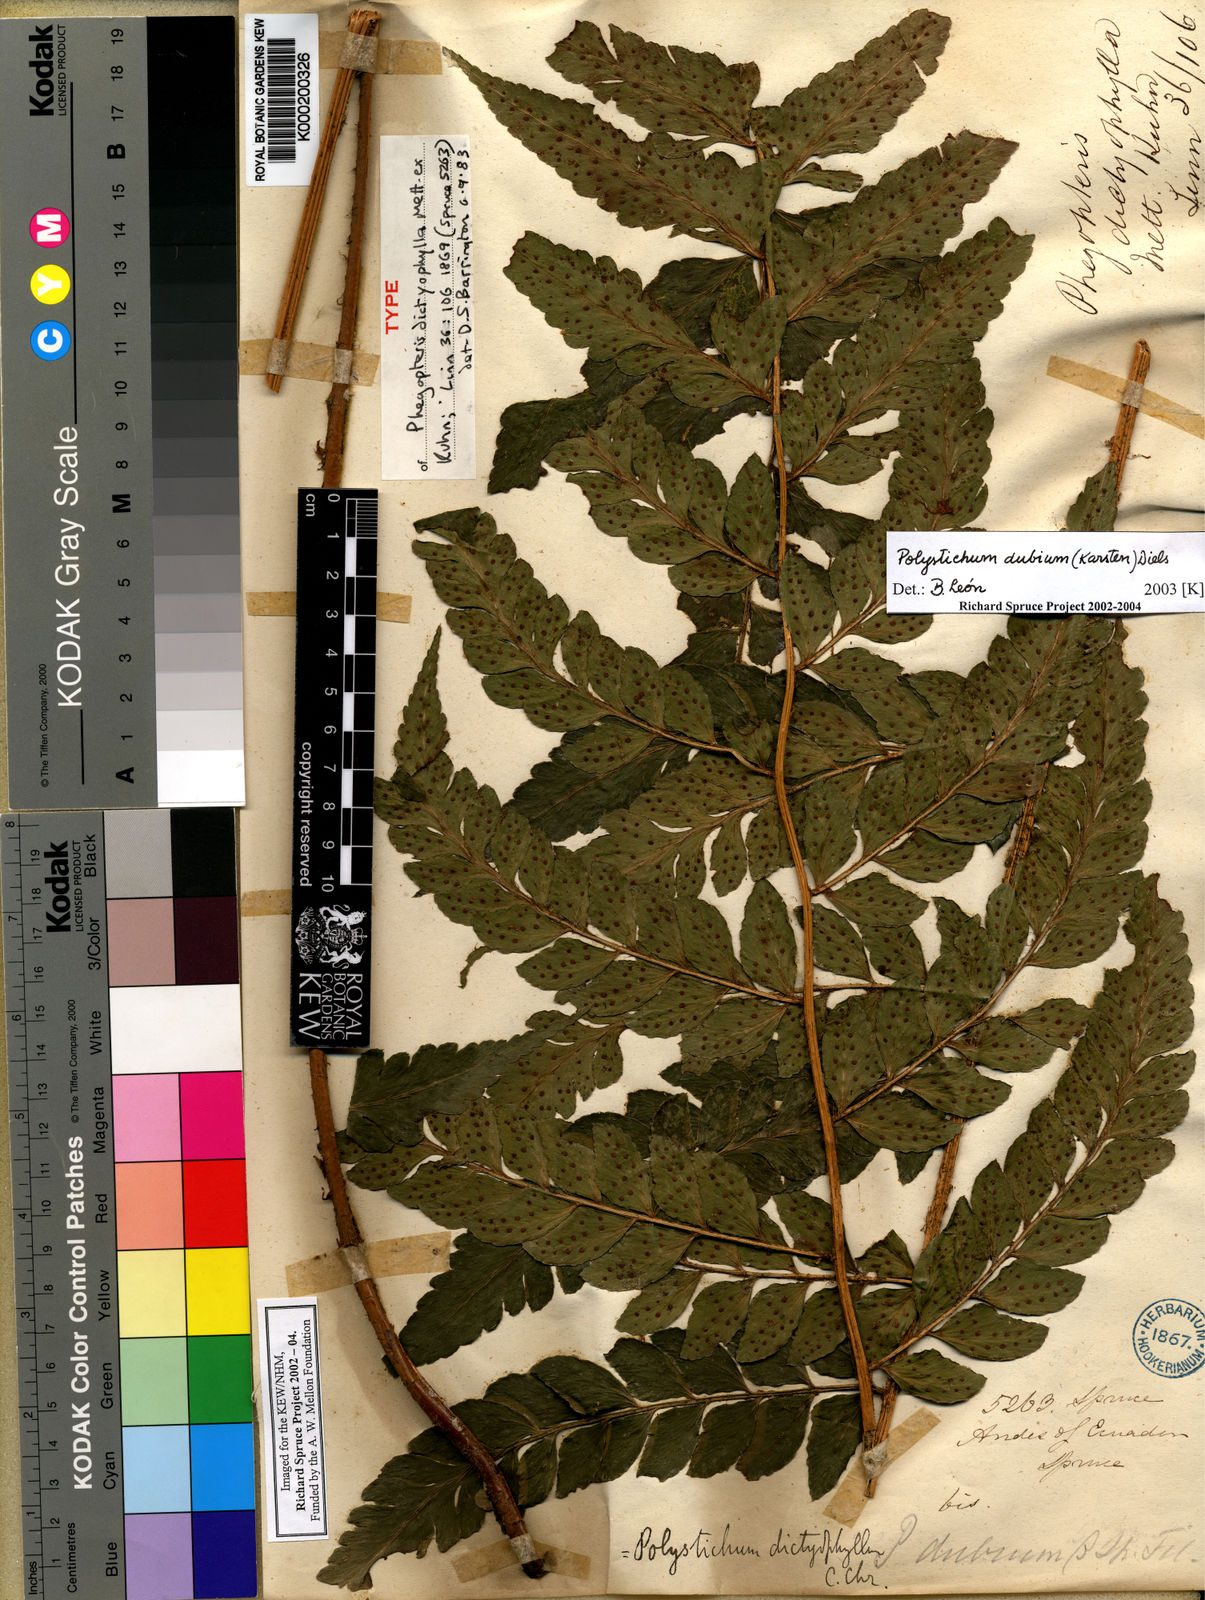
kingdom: Plantae
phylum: Tracheophyta
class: Polypodiopsida
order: Polypodiales
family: Dryopteridaceae
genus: Polystichum
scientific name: Polystichum dubium
